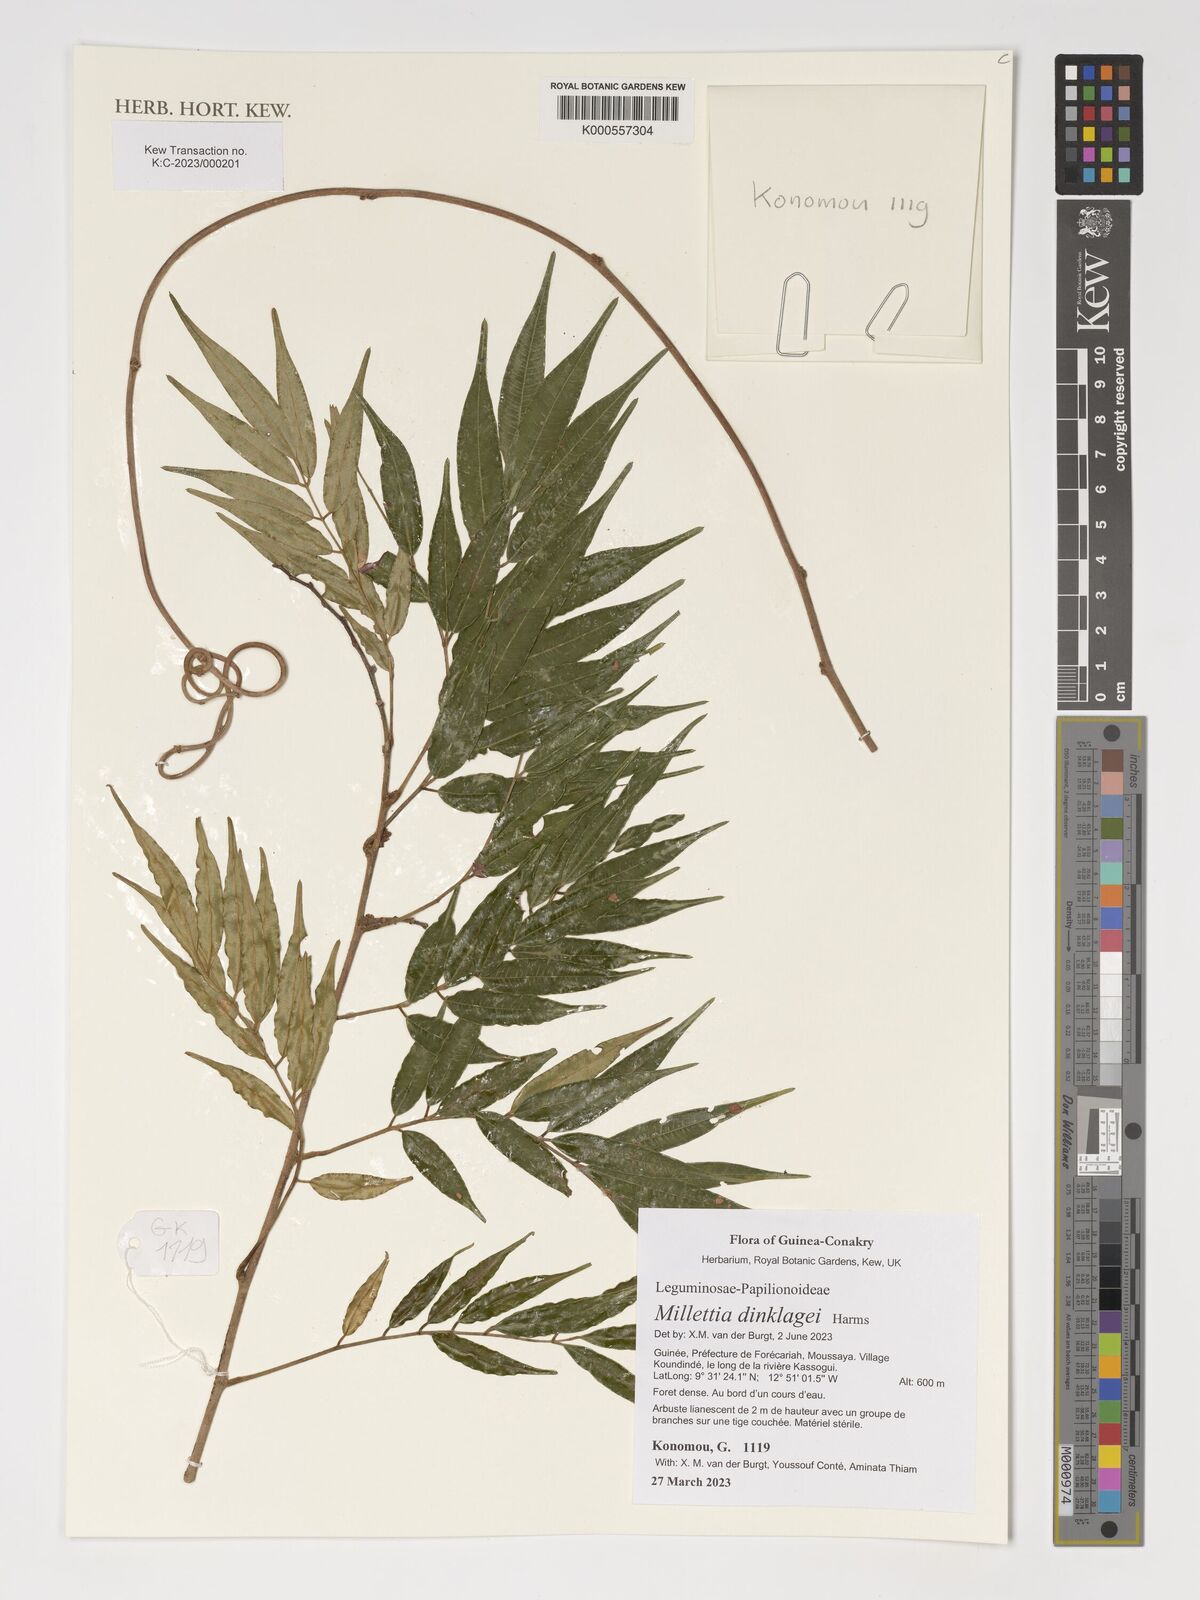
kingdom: Plantae
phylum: Tracheophyta
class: Magnoliopsida
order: Fabales
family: Fabaceae
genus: Millettia
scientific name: Millettia dinklagei
